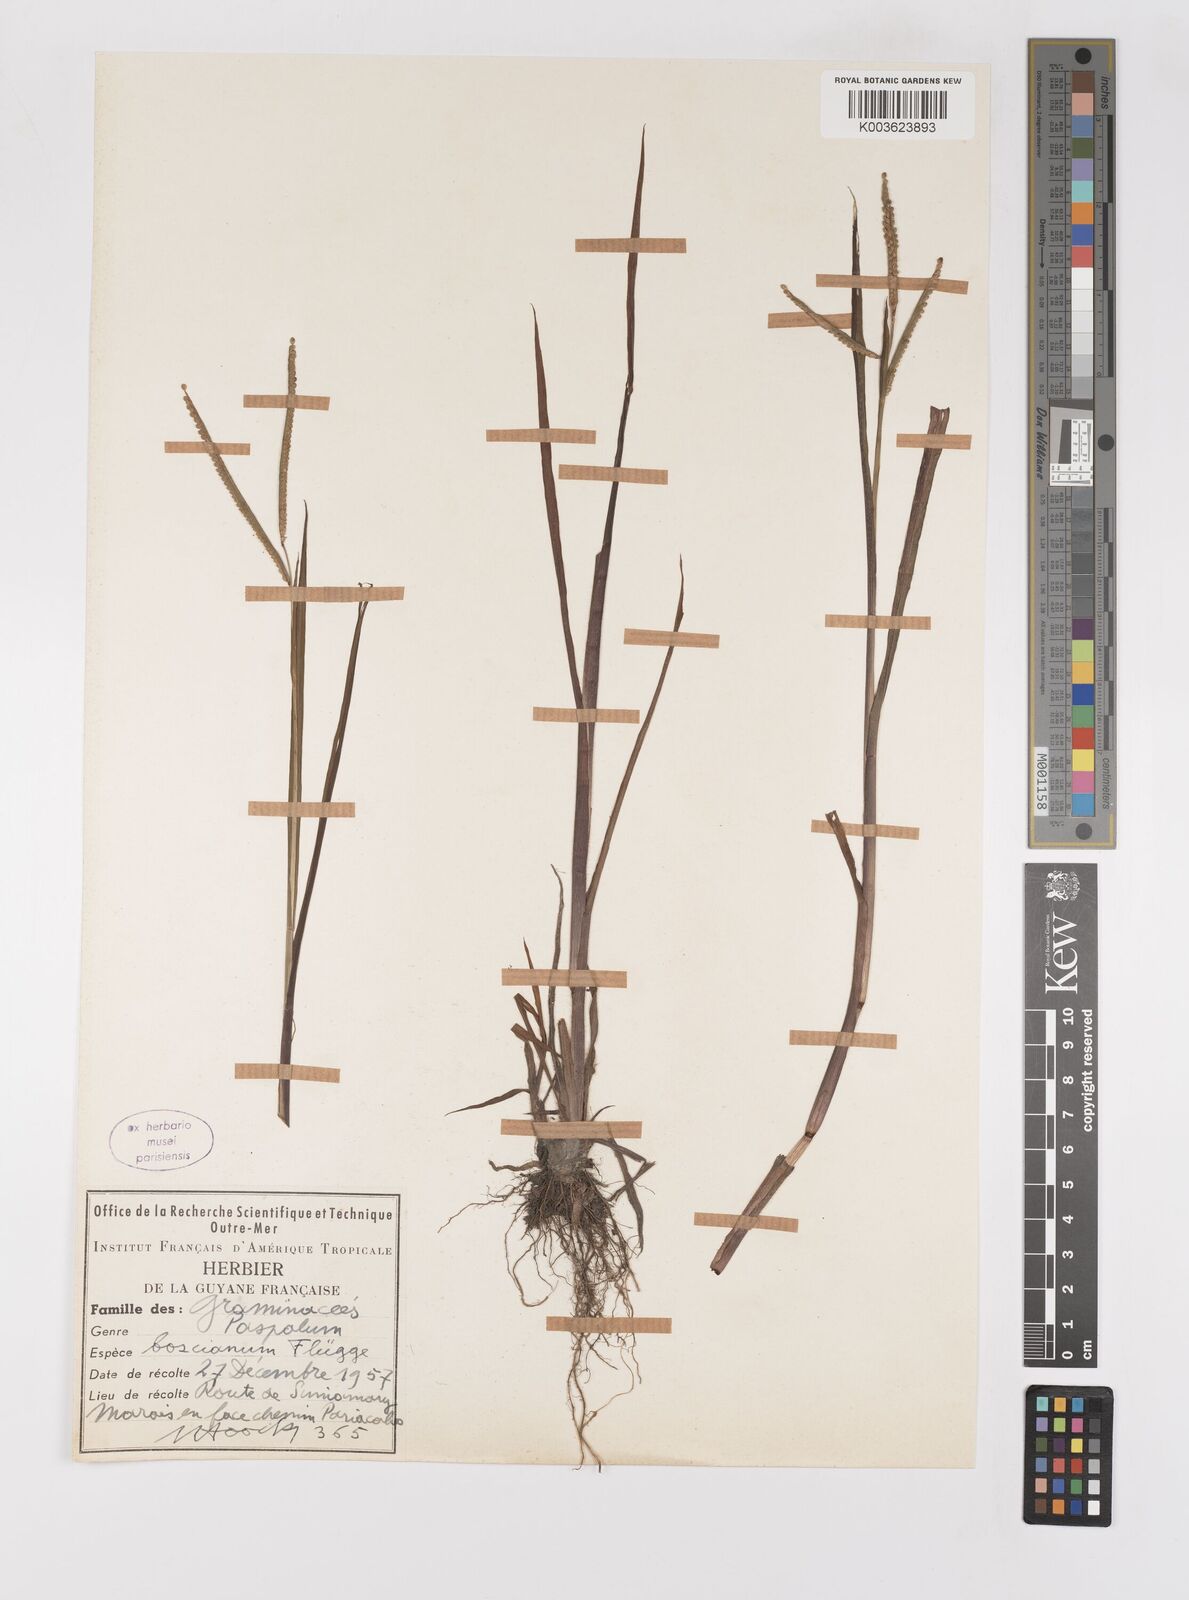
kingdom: Plantae
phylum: Tracheophyta
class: Liliopsida
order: Poales
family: Poaceae
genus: Paspalum
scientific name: Paspalum scrobiculatum
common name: Kodo millet
